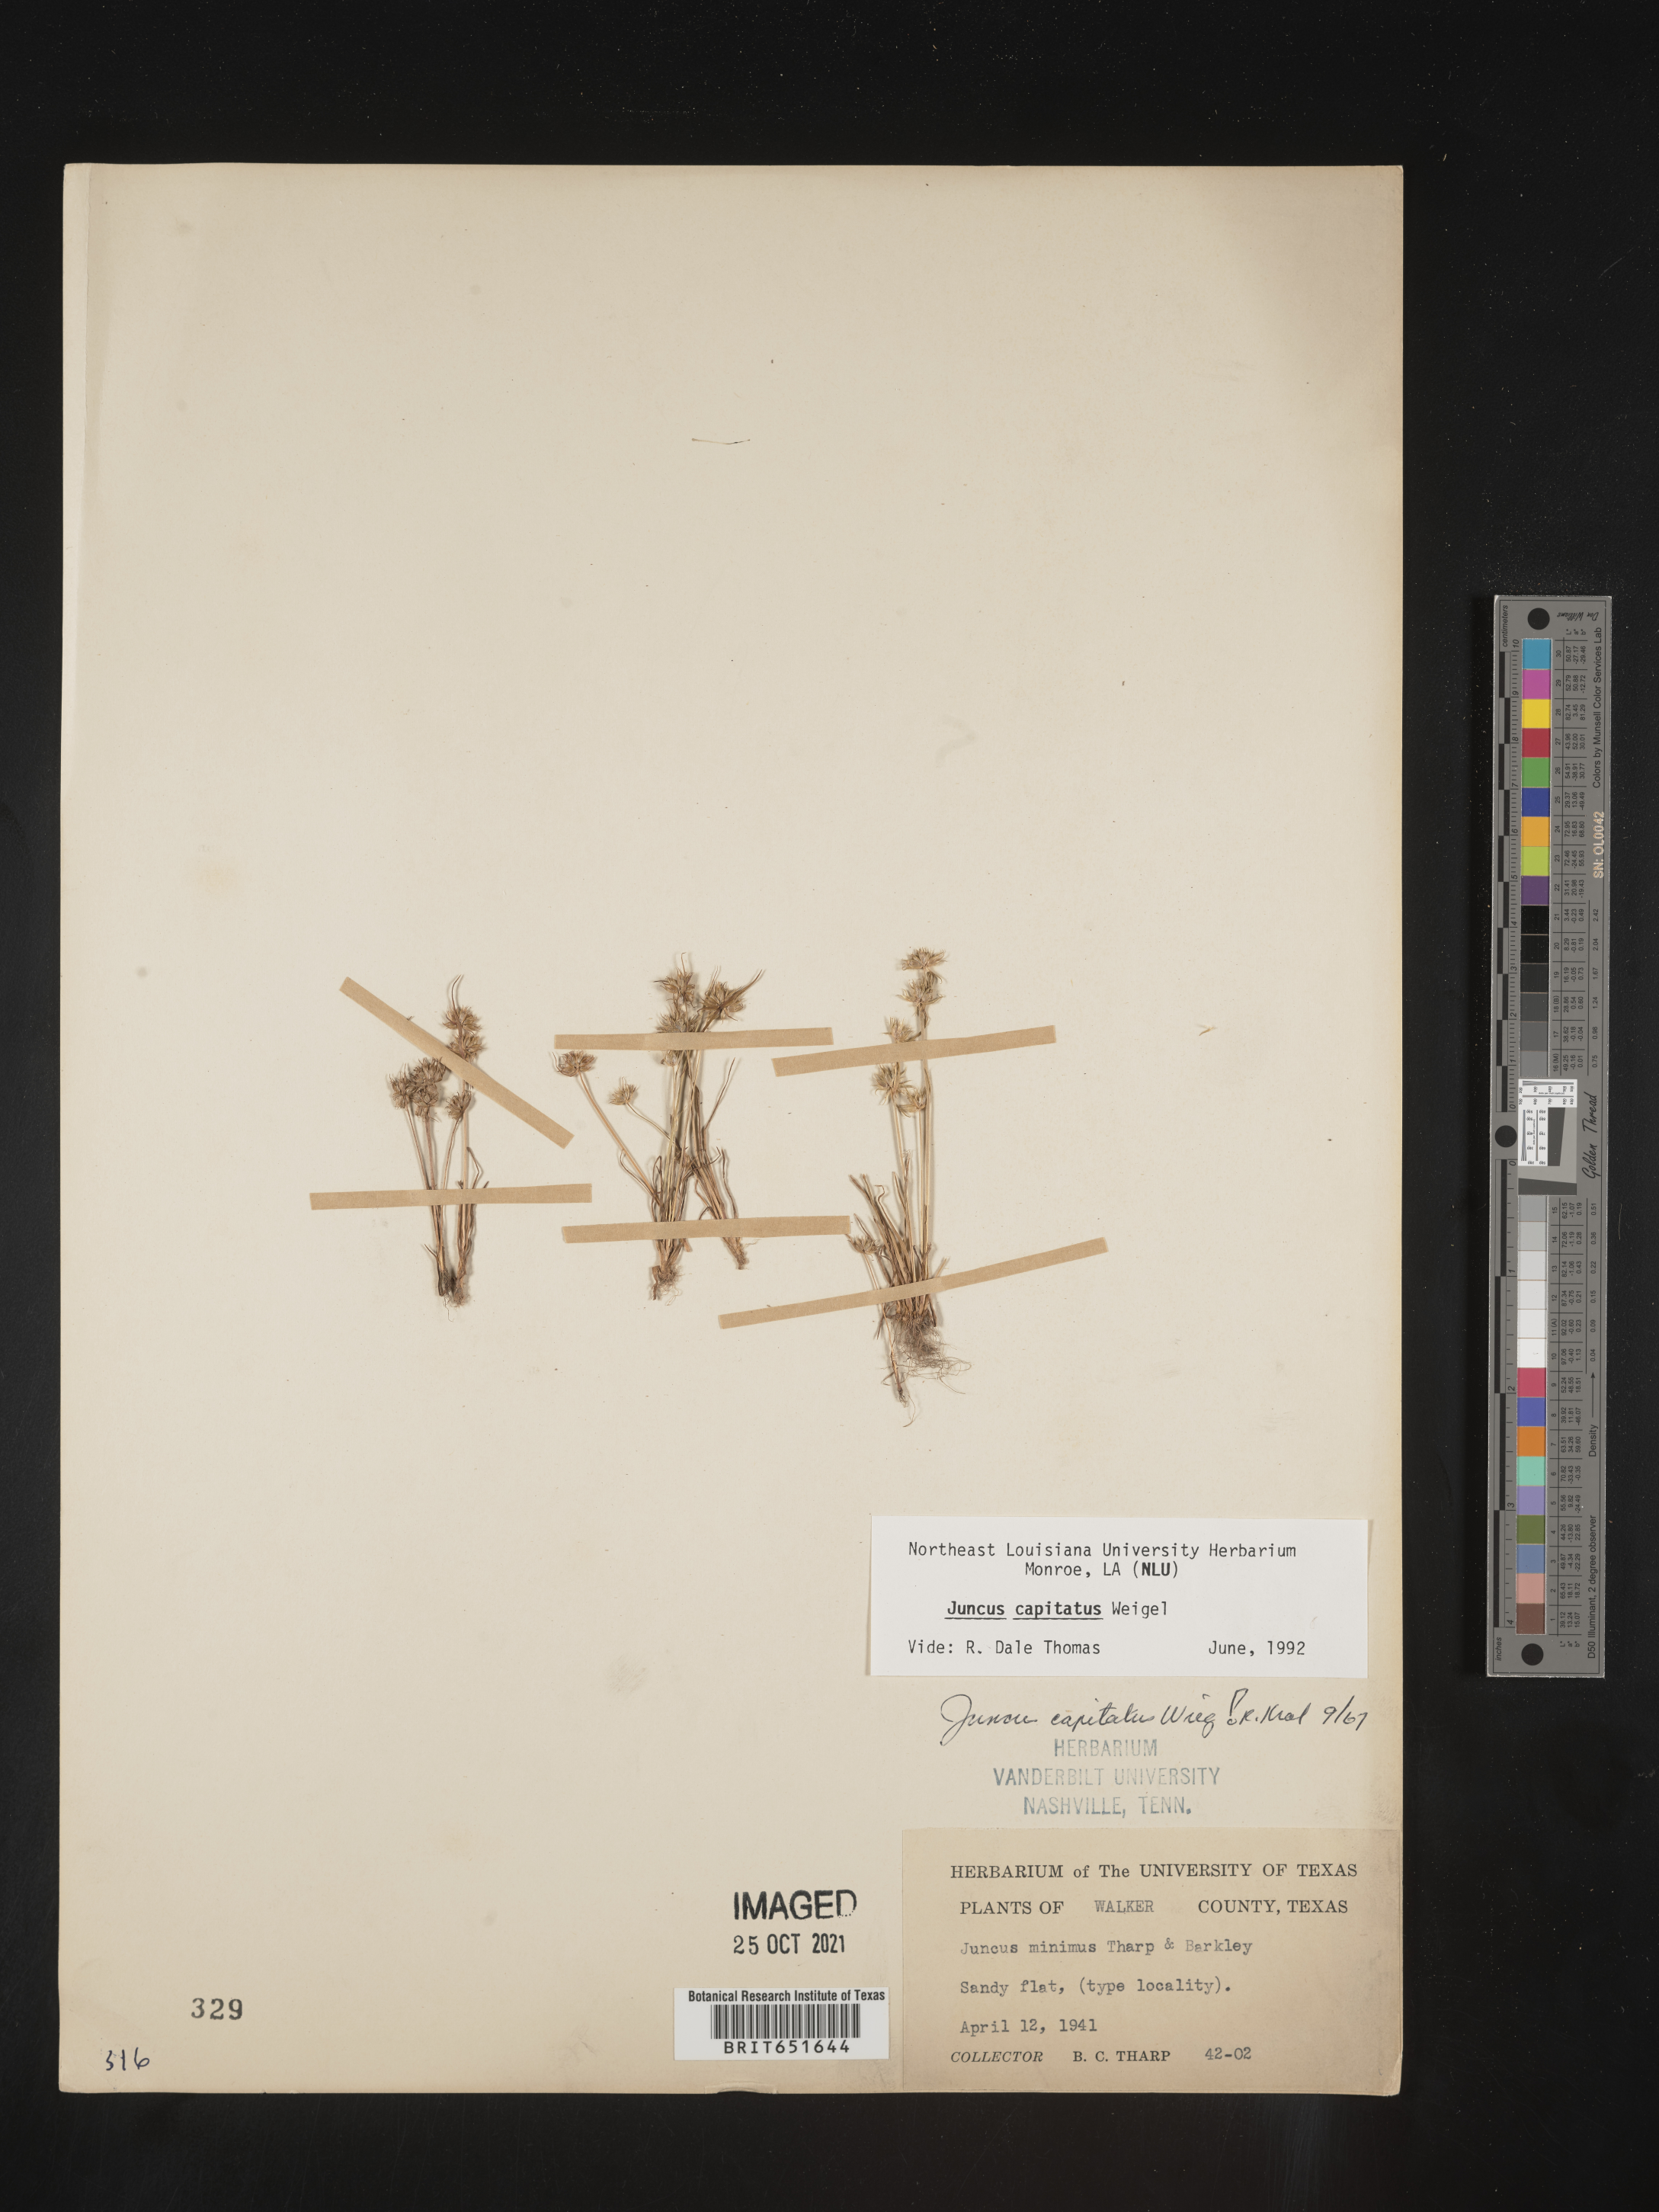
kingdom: Plantae
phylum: Tracheophyta
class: Liliopsida
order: Poales
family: Juncaceae
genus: Juncus
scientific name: Juncus capitatus
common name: Dwarf rush
